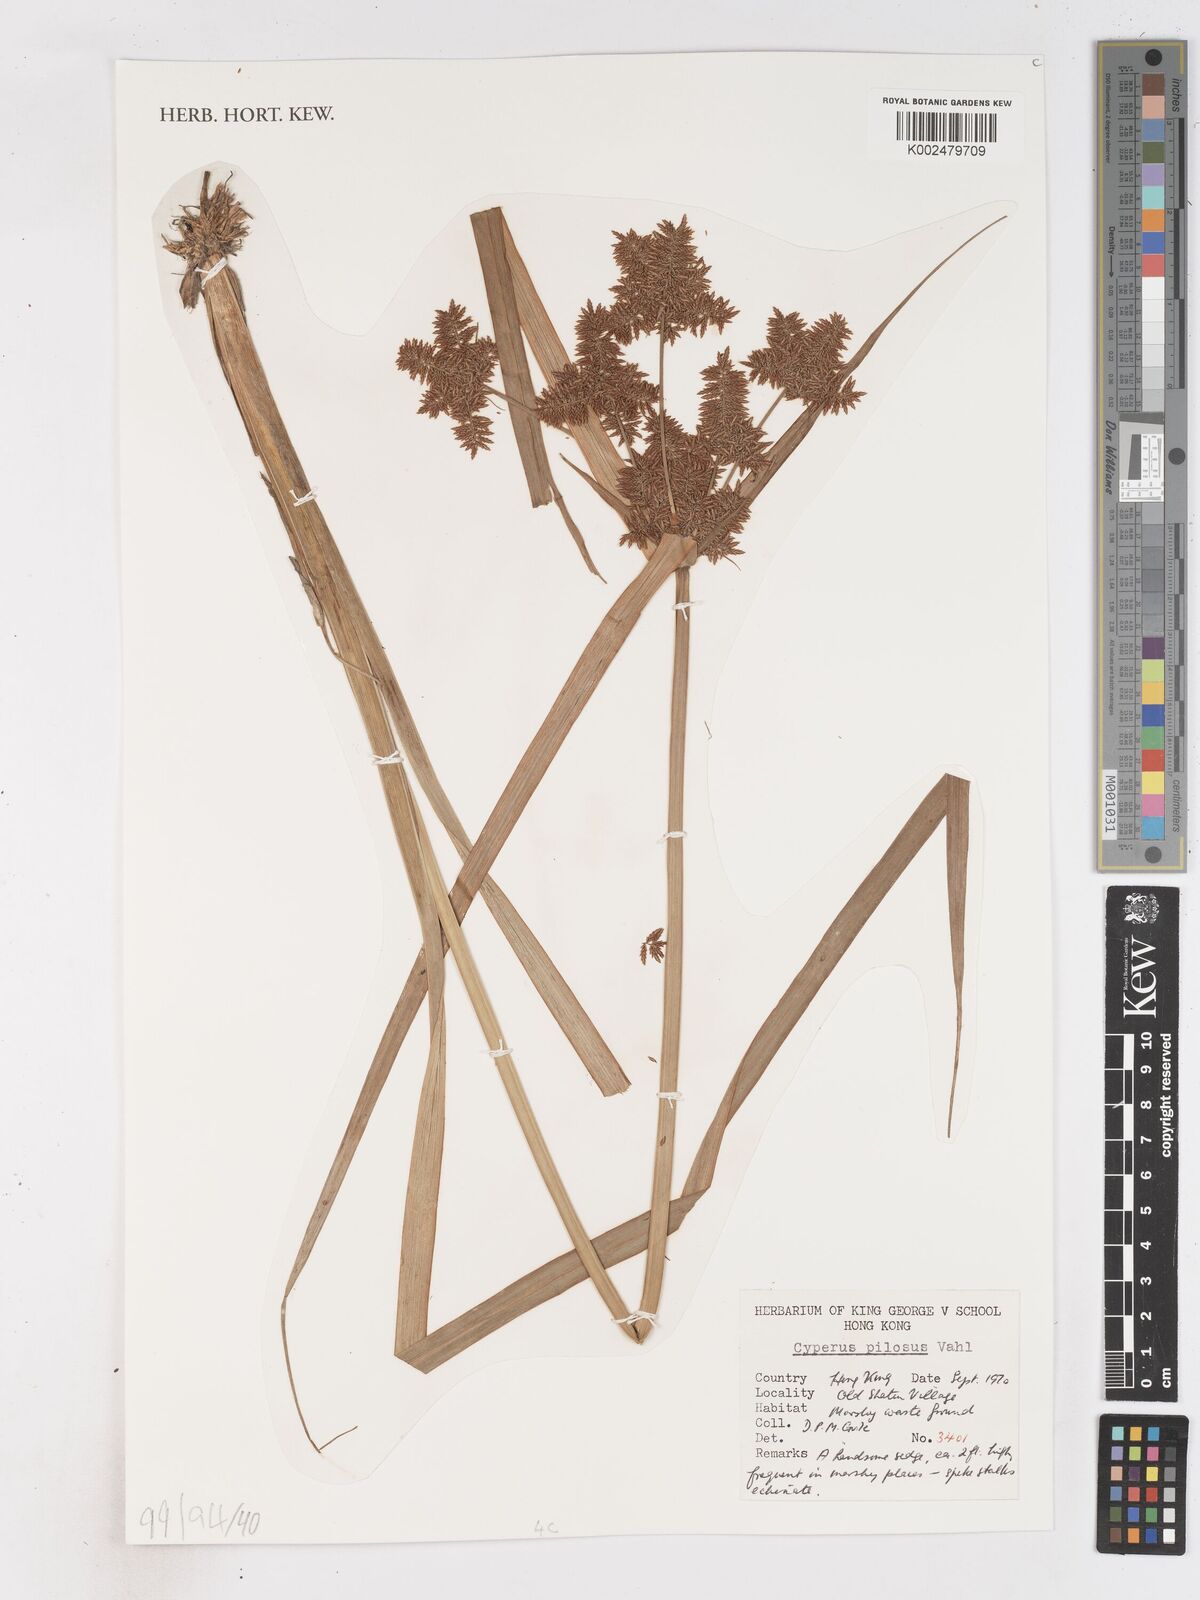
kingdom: Plantae
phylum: Tracheophyta
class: Liliopsida
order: Poales
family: Cyperaceae
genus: Cyperus
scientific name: Cyperus pilosus
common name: Fuzzy flatsedge
